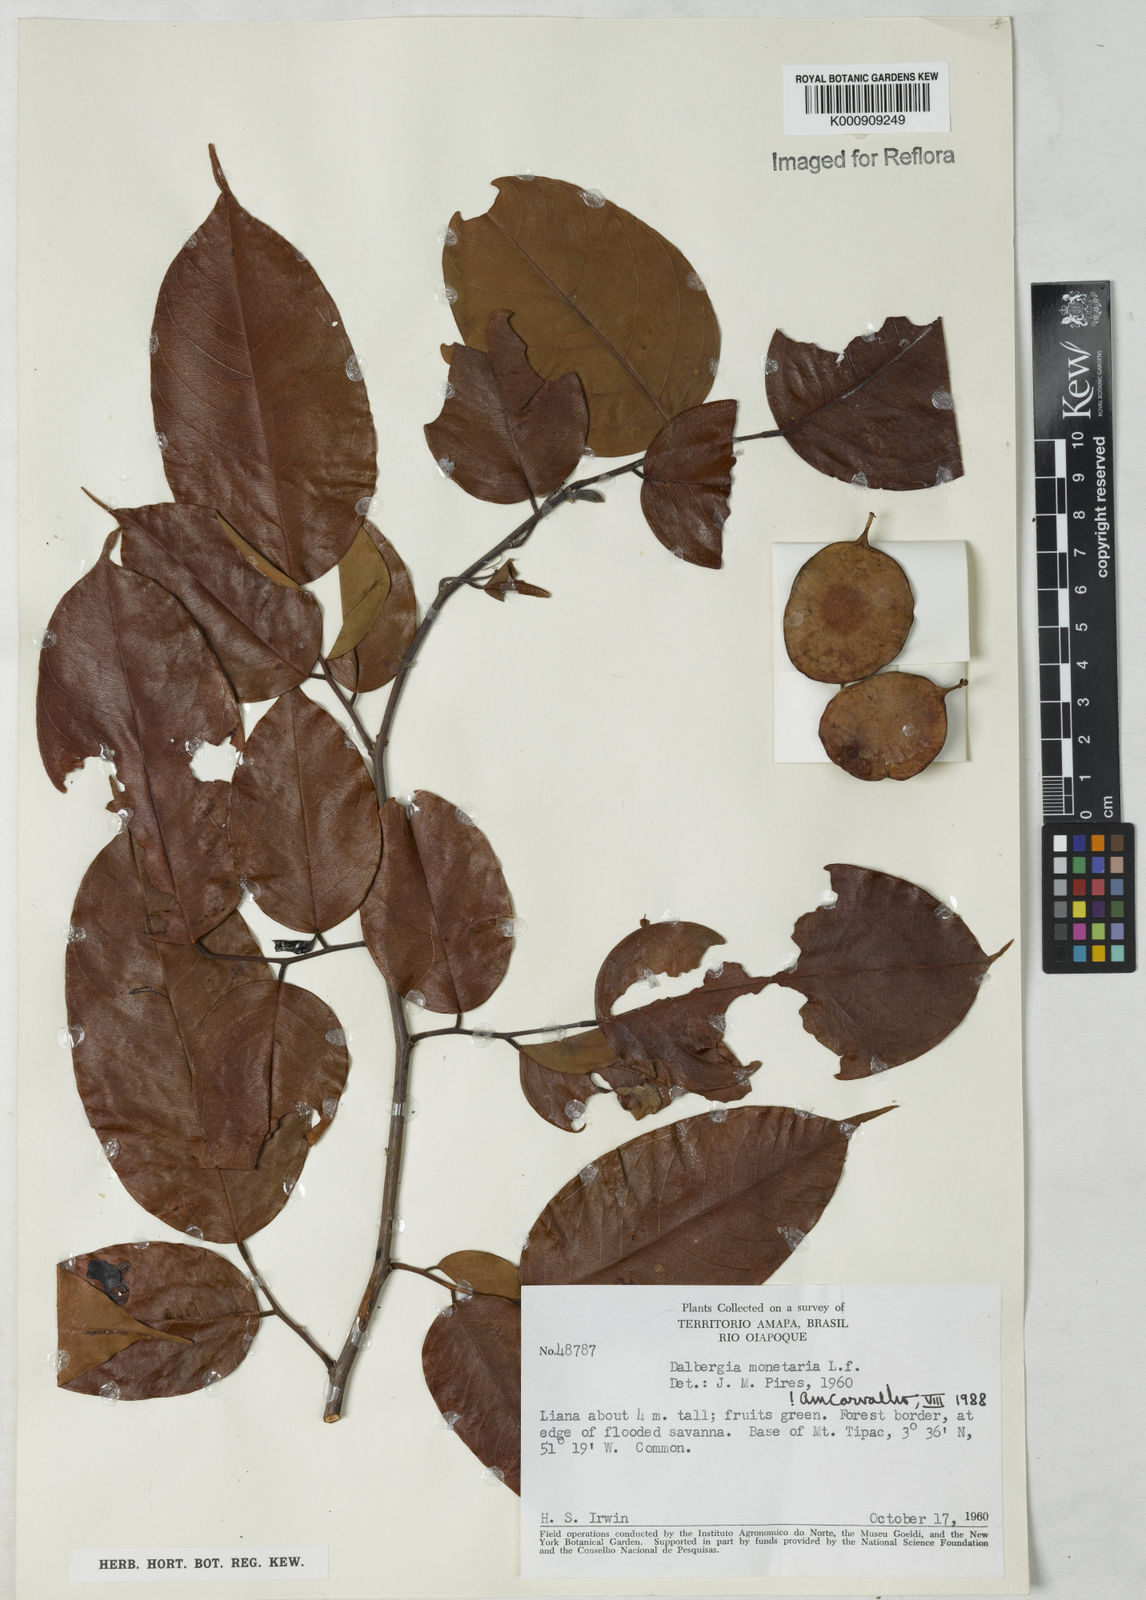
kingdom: Plantae
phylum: Tracheophyta
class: Magnoliopsida
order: Fabales
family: Fabaceae
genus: Dalbergia
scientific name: Dalbergia ovalis
